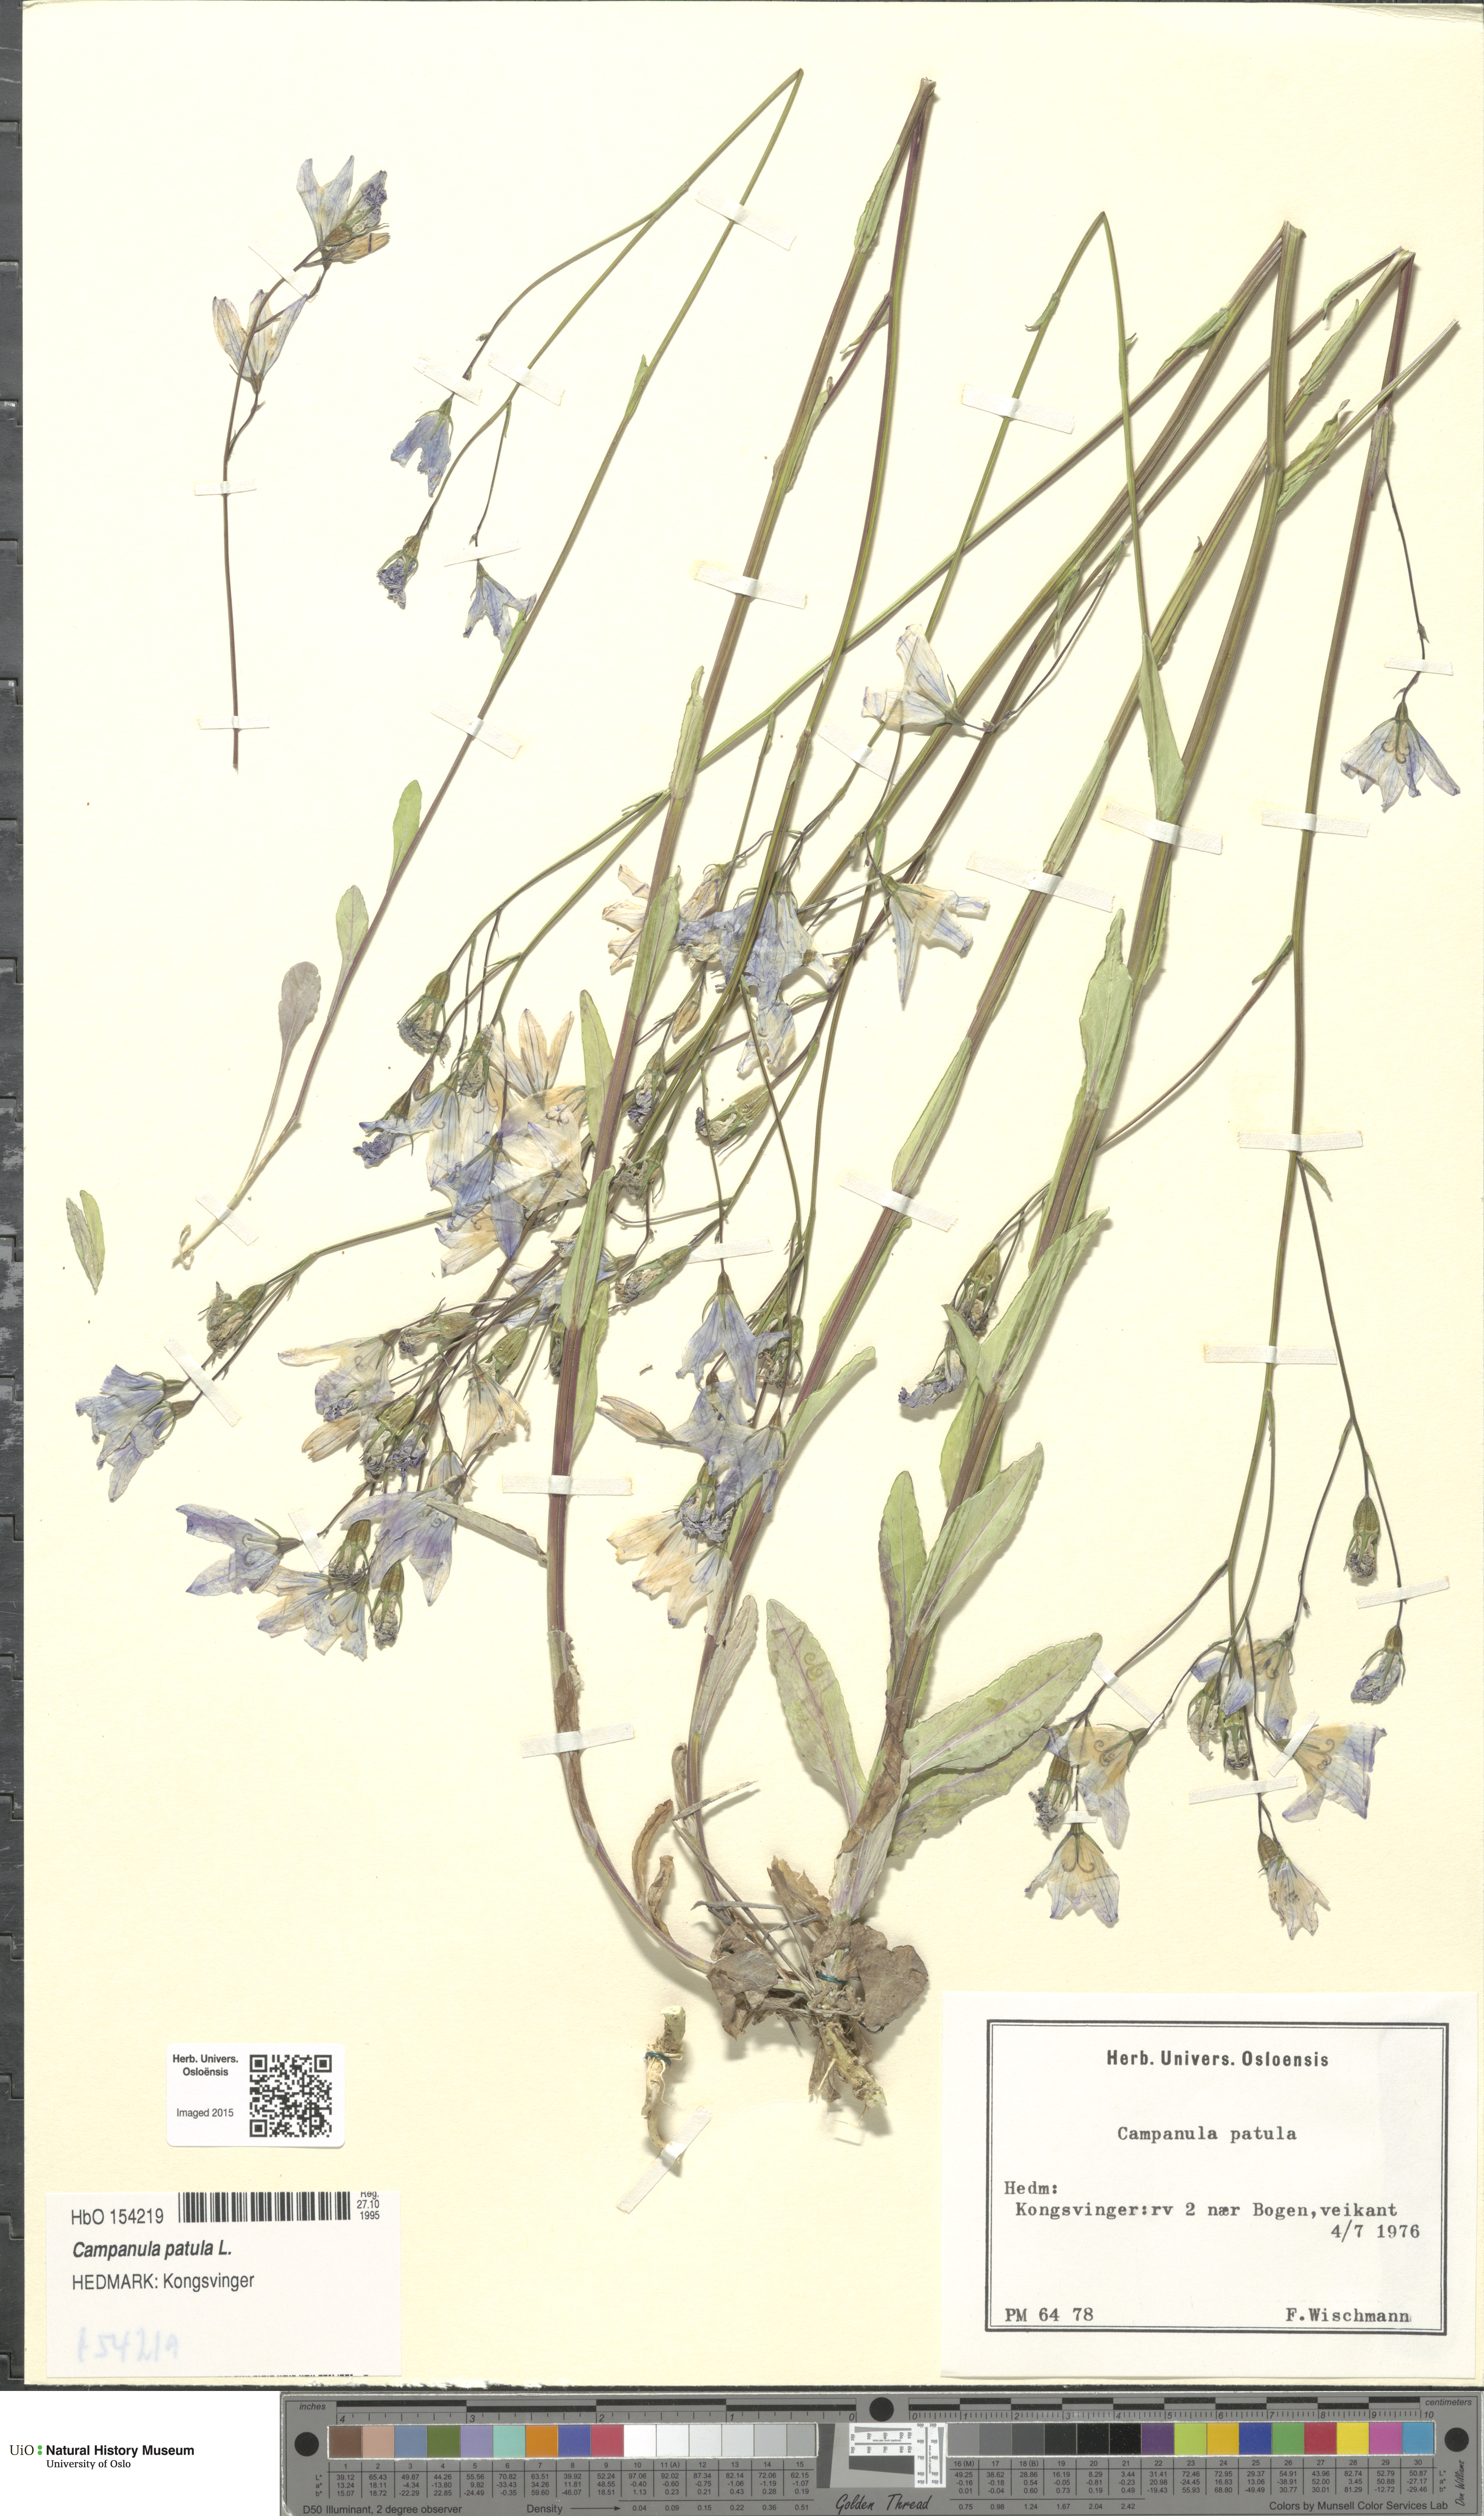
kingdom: Plantae
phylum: Tracheophyta
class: Magnoliopsida
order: Asterales
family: Campanulaceae
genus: Campanula
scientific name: Campanula patula
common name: Spreading bellflower
